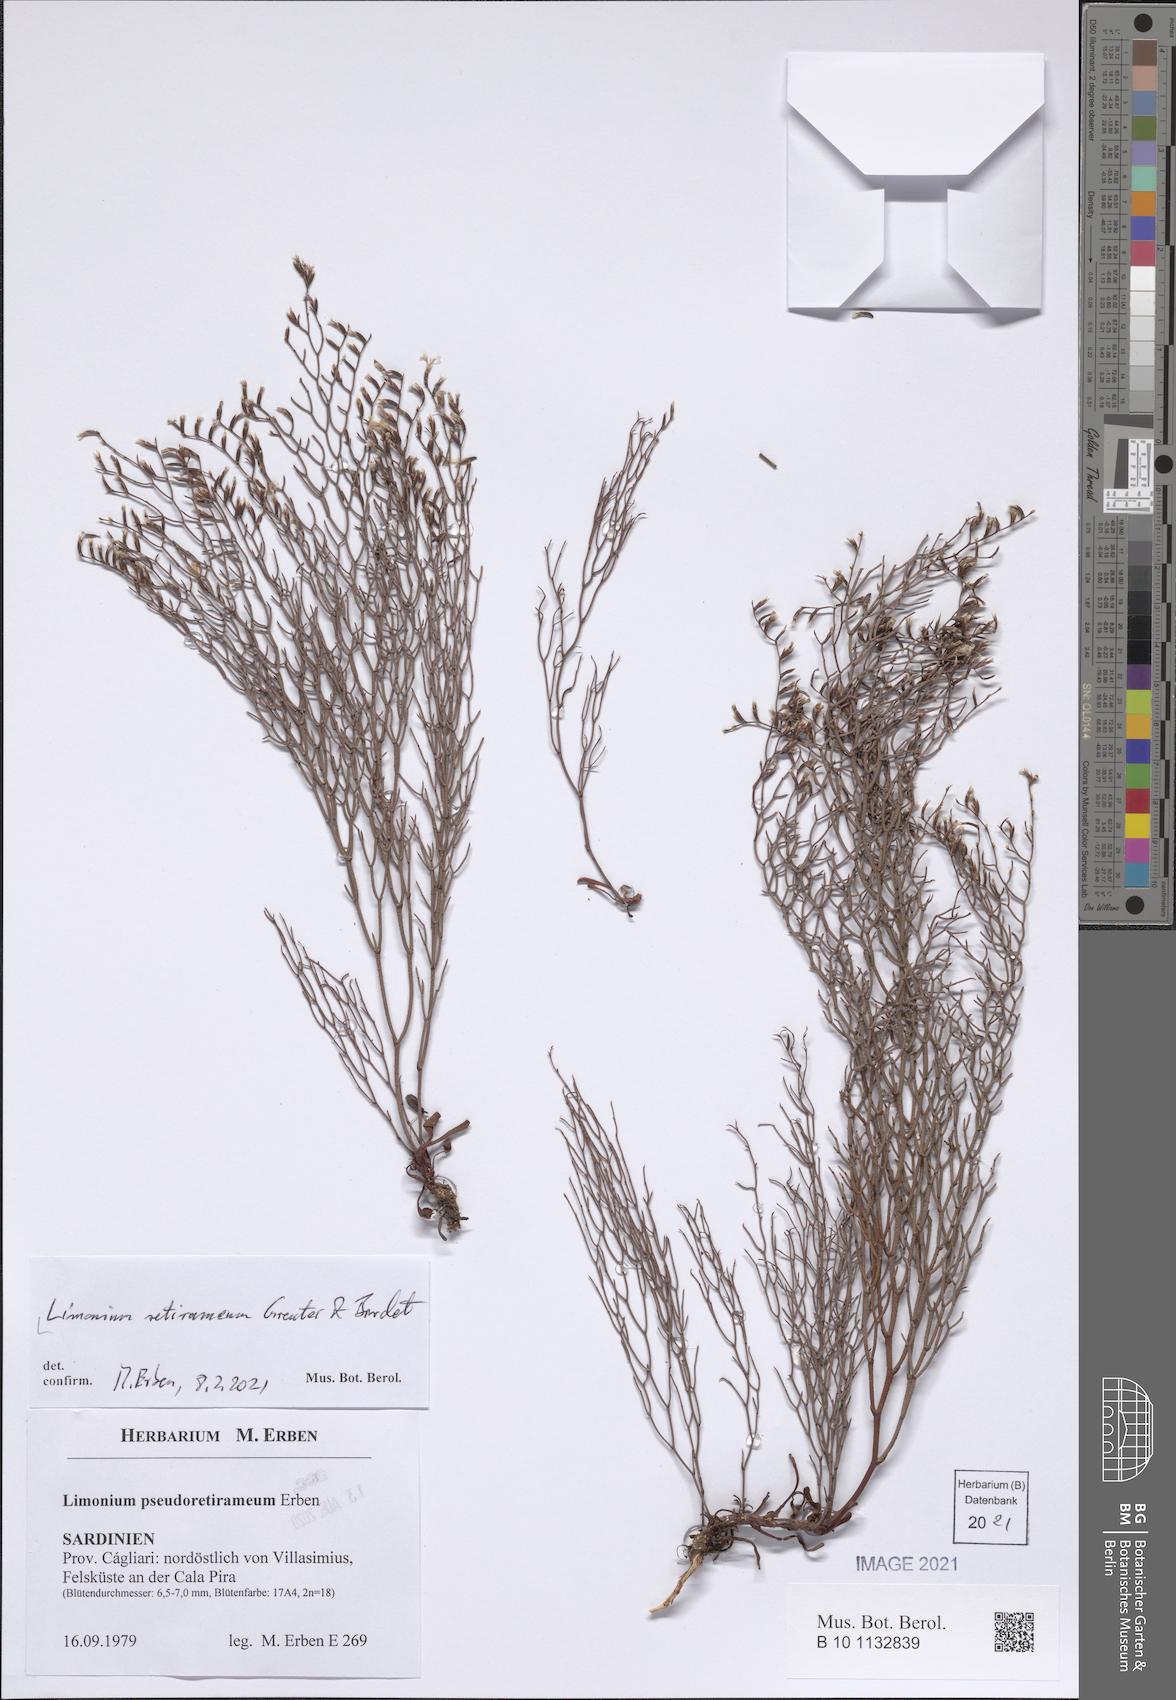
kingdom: Plantae
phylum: Tracheophyta
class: Magnoliopsida
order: Caryophyllales
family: Plumbaginaceae
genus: Limonium
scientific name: Limonium retirameum
